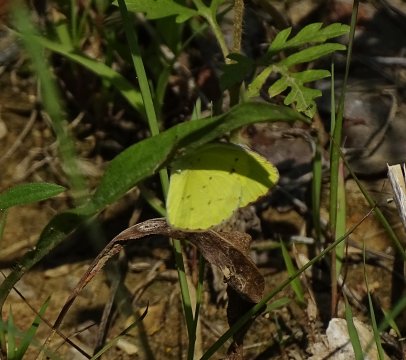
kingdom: Animalia
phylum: Arthropoda
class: Insecta
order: Lepidoptera
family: Pieridae
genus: Pyrisitia
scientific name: Pyrisitia lisa
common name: Little Yellow
